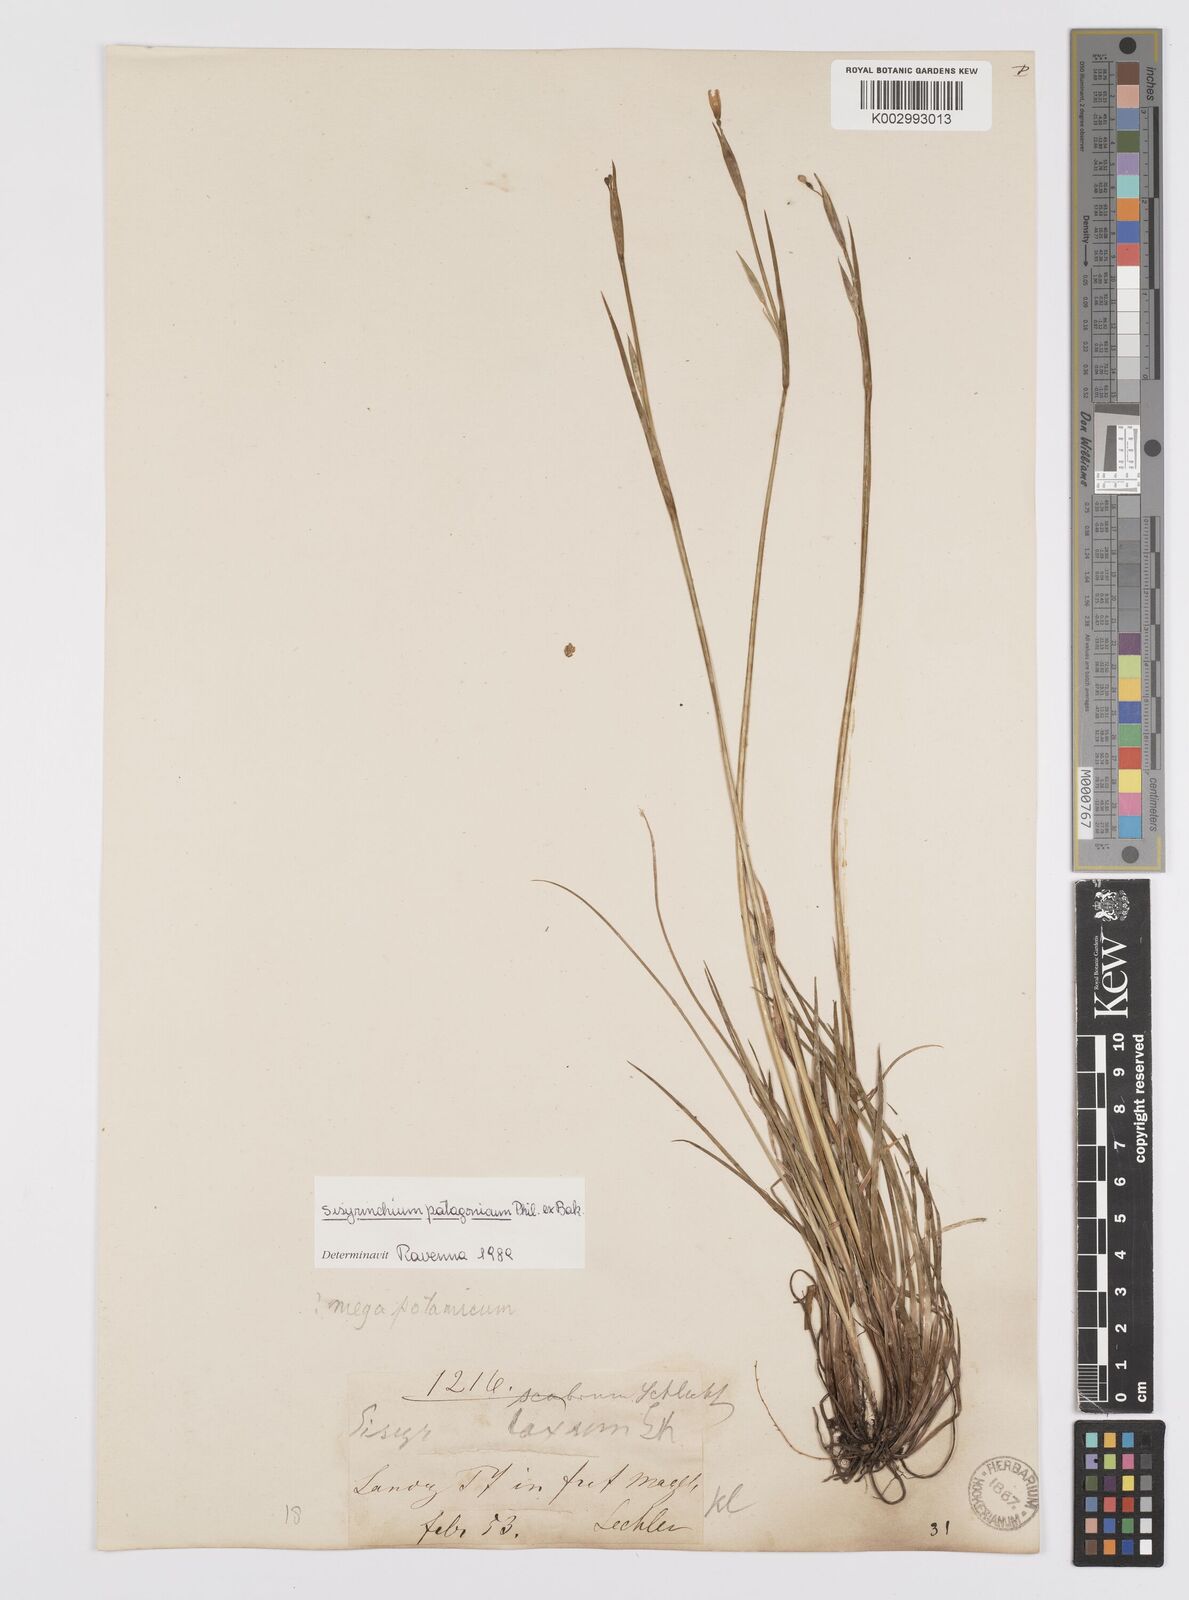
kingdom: Plantae
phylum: Tracheophyta
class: Liliopsida
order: Asparagales
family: Iridaceae
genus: Sisyrinchium
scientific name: Sisyrinchium
